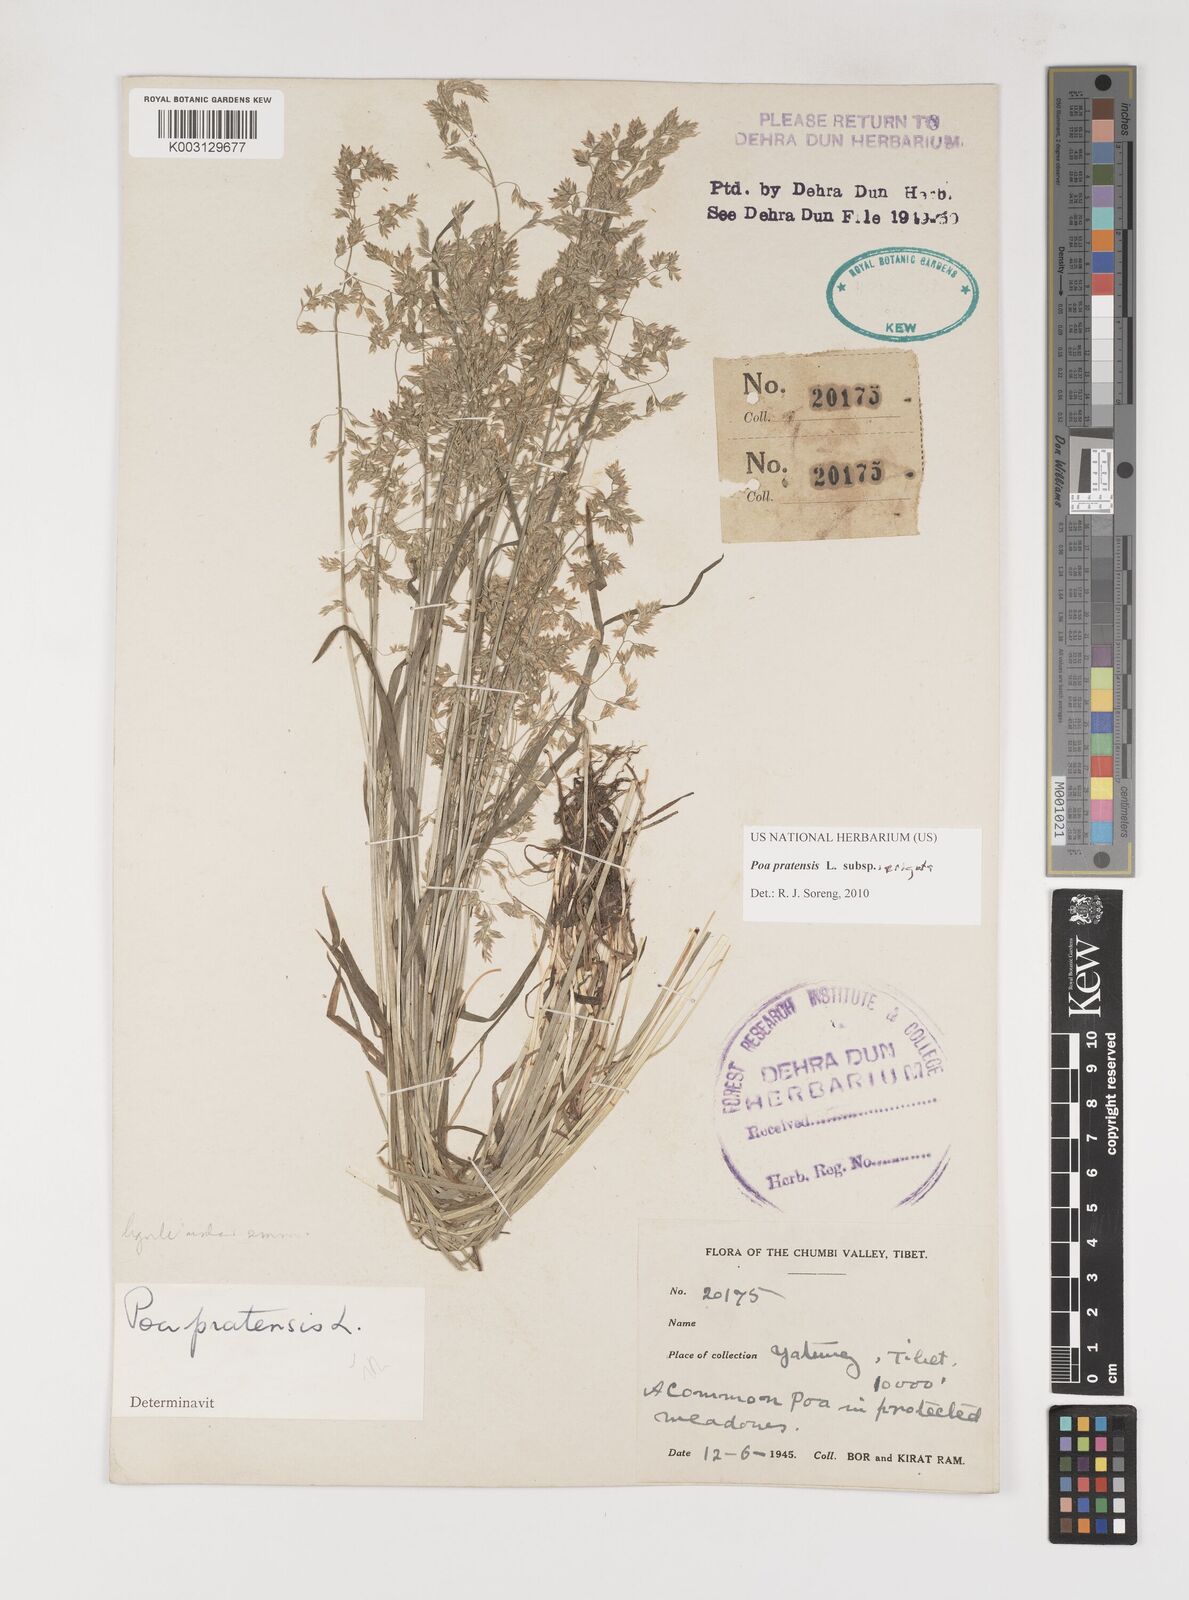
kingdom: Plantae
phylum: Tracheophyta
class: Liliopsida
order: Poales
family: Poaceae
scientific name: Poaceae
